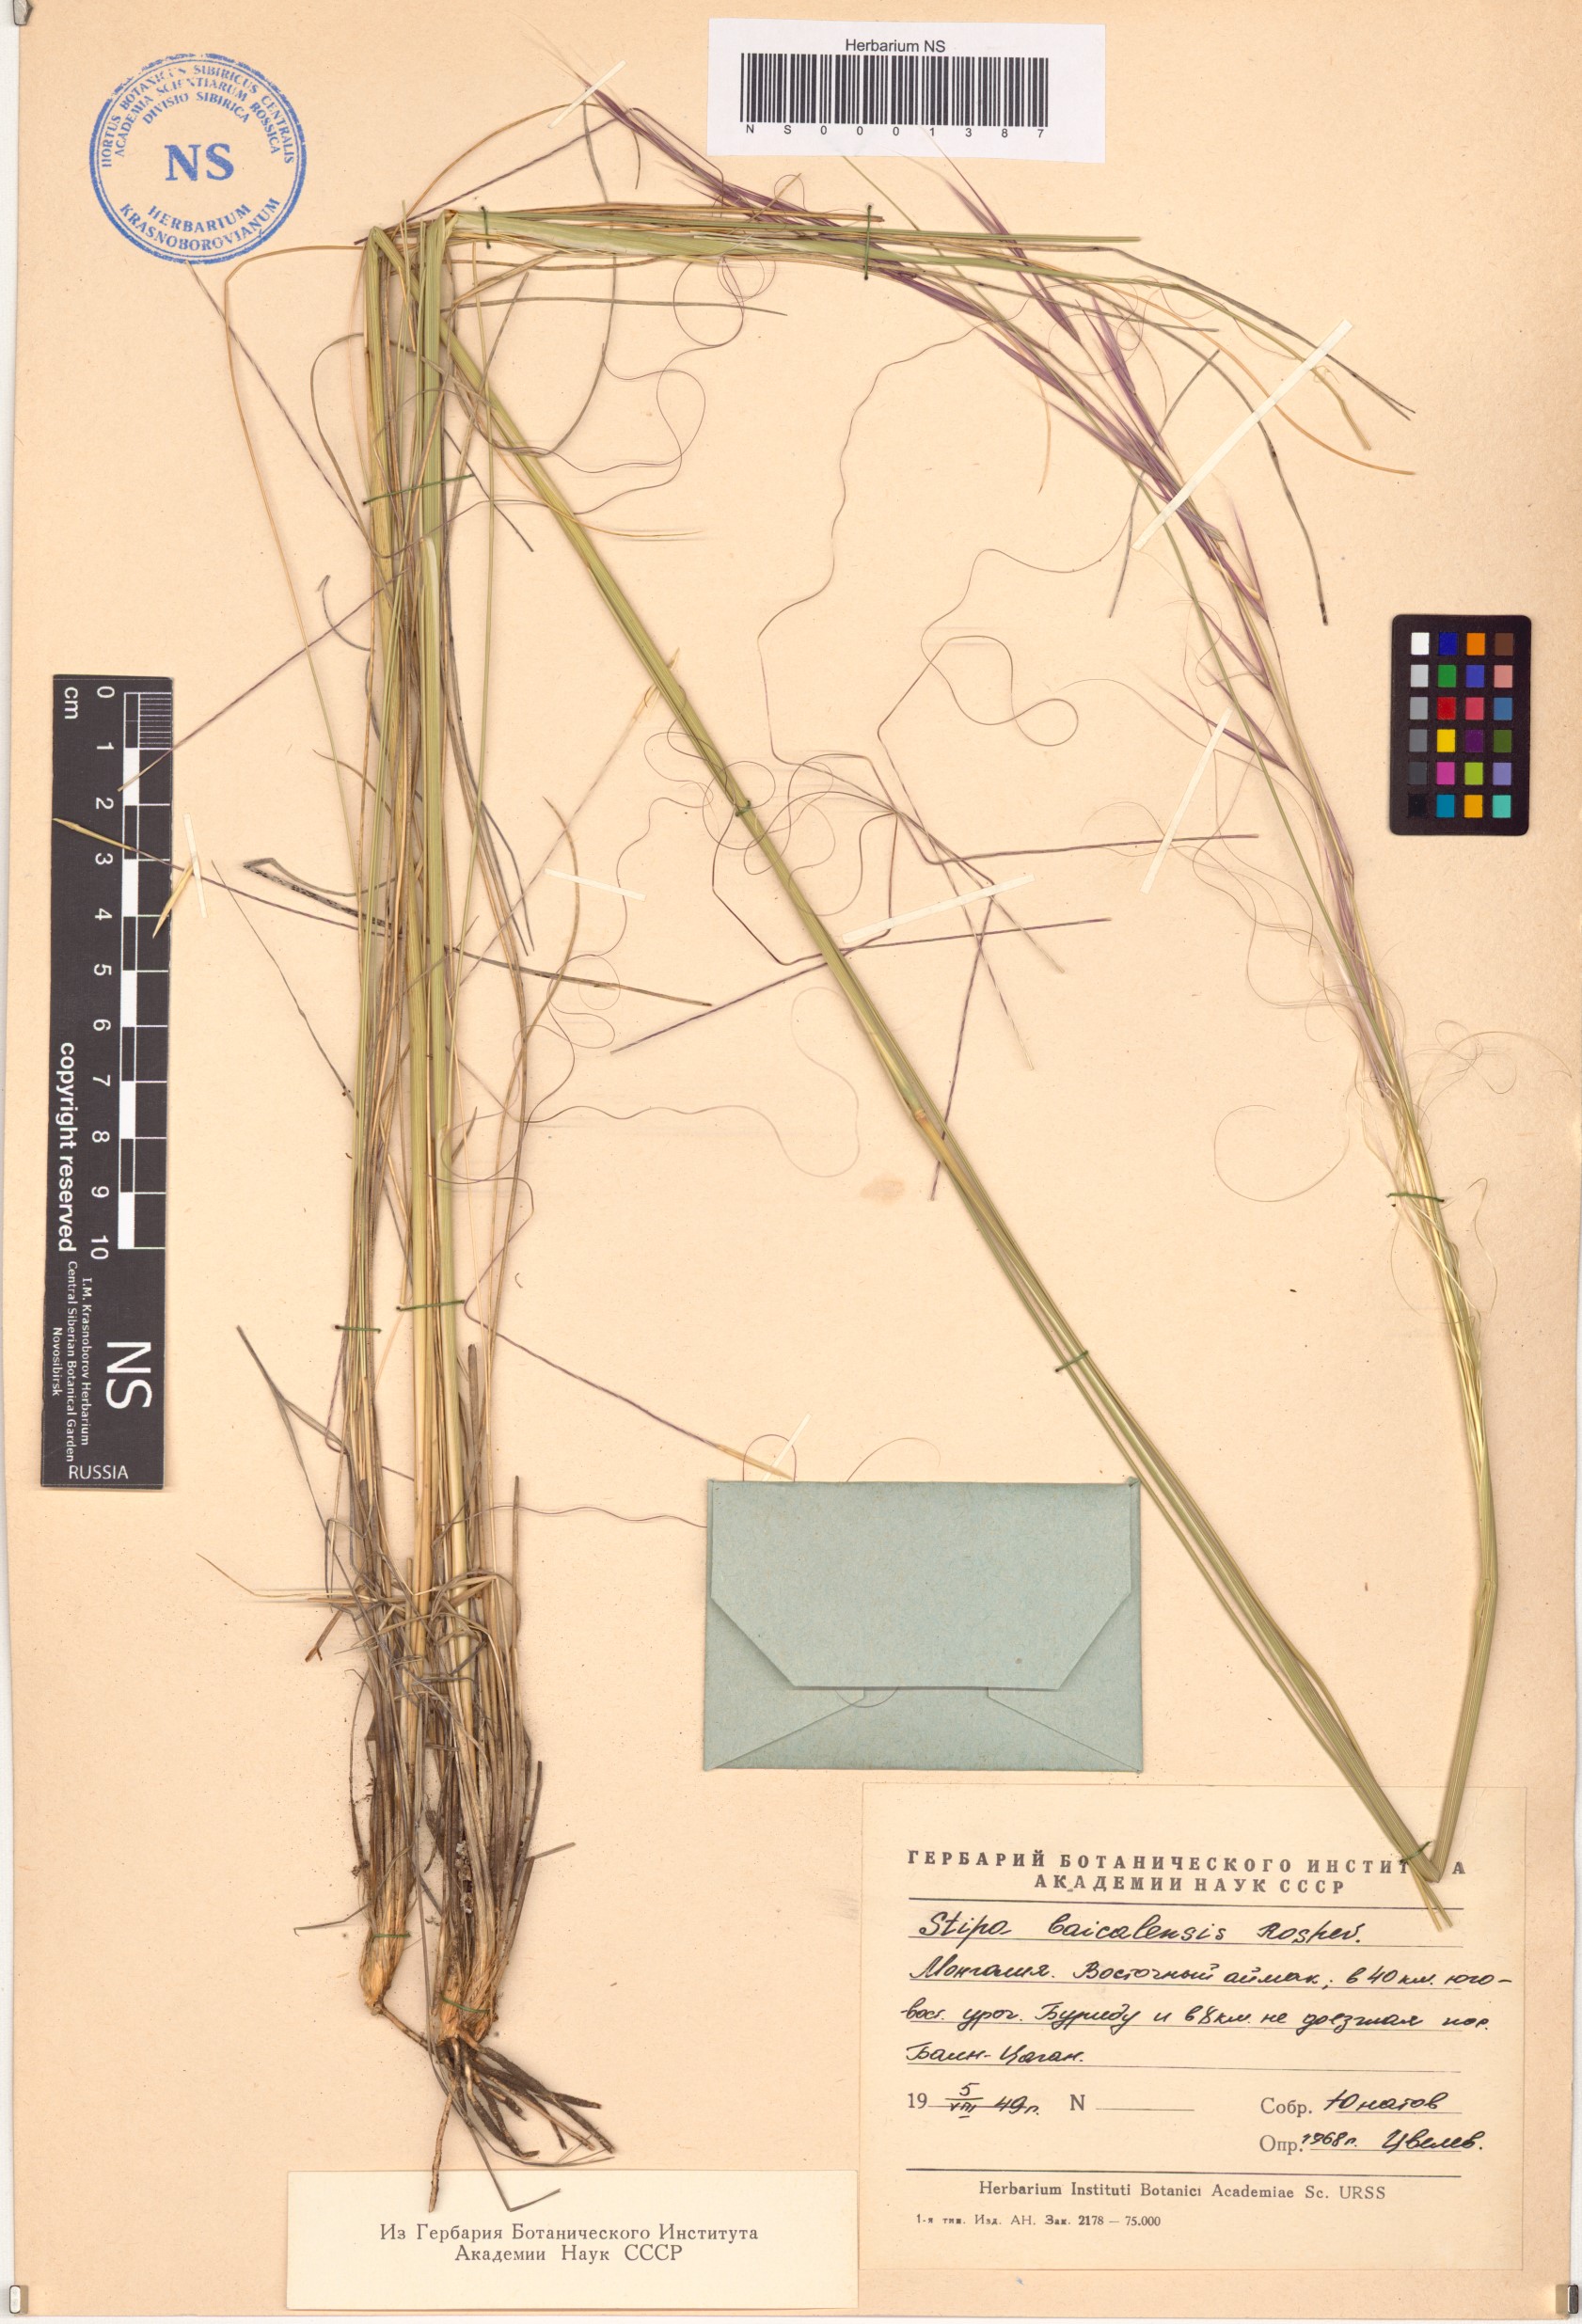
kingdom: Plantae
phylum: Tracheophyta
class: Liliopsida
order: Poales
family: Poaceae
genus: Stipa
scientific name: Stipa baicalensis
